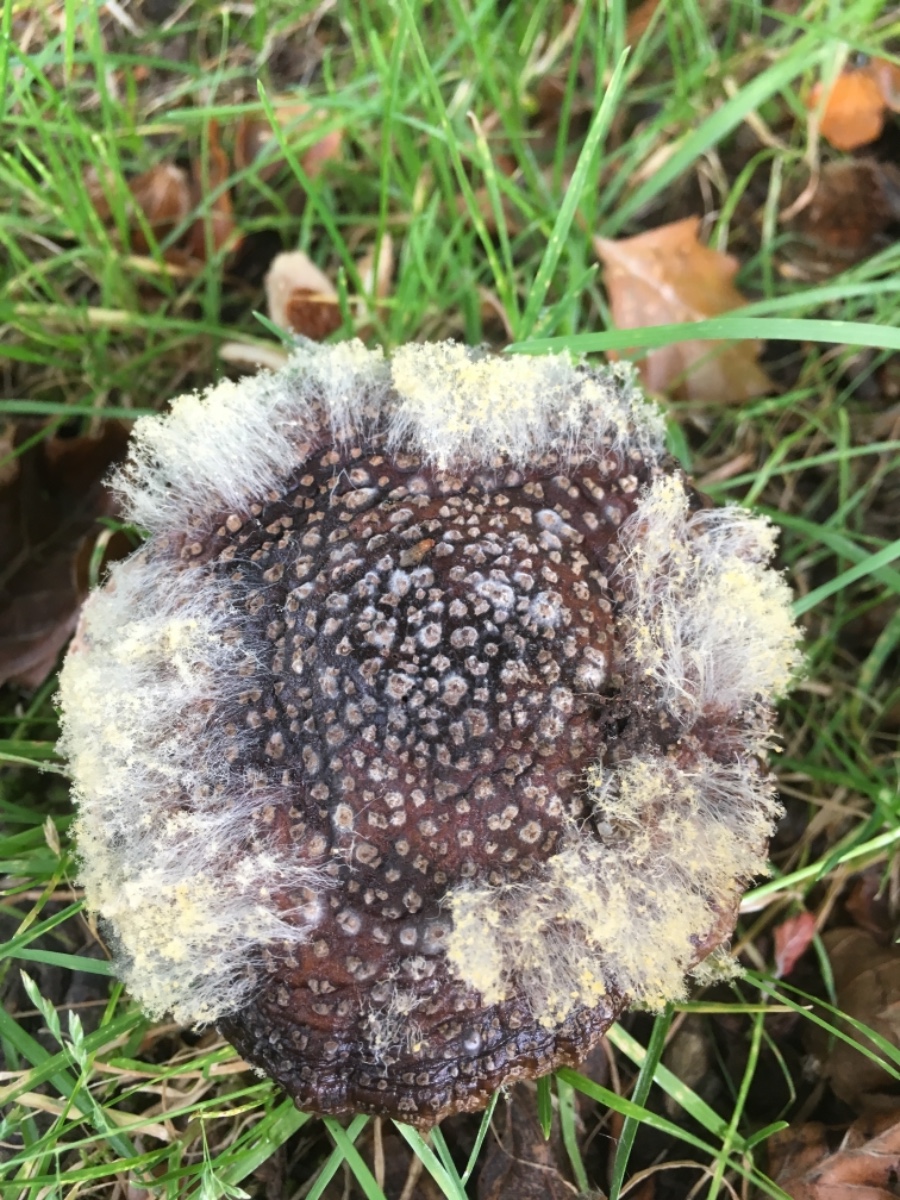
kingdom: Fungi
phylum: Mucoromycota
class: Mucoromycetes
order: Mucorales
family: Rhizopodaceae
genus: Syzygites
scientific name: Syzygites megalocarpus
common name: nissenål
